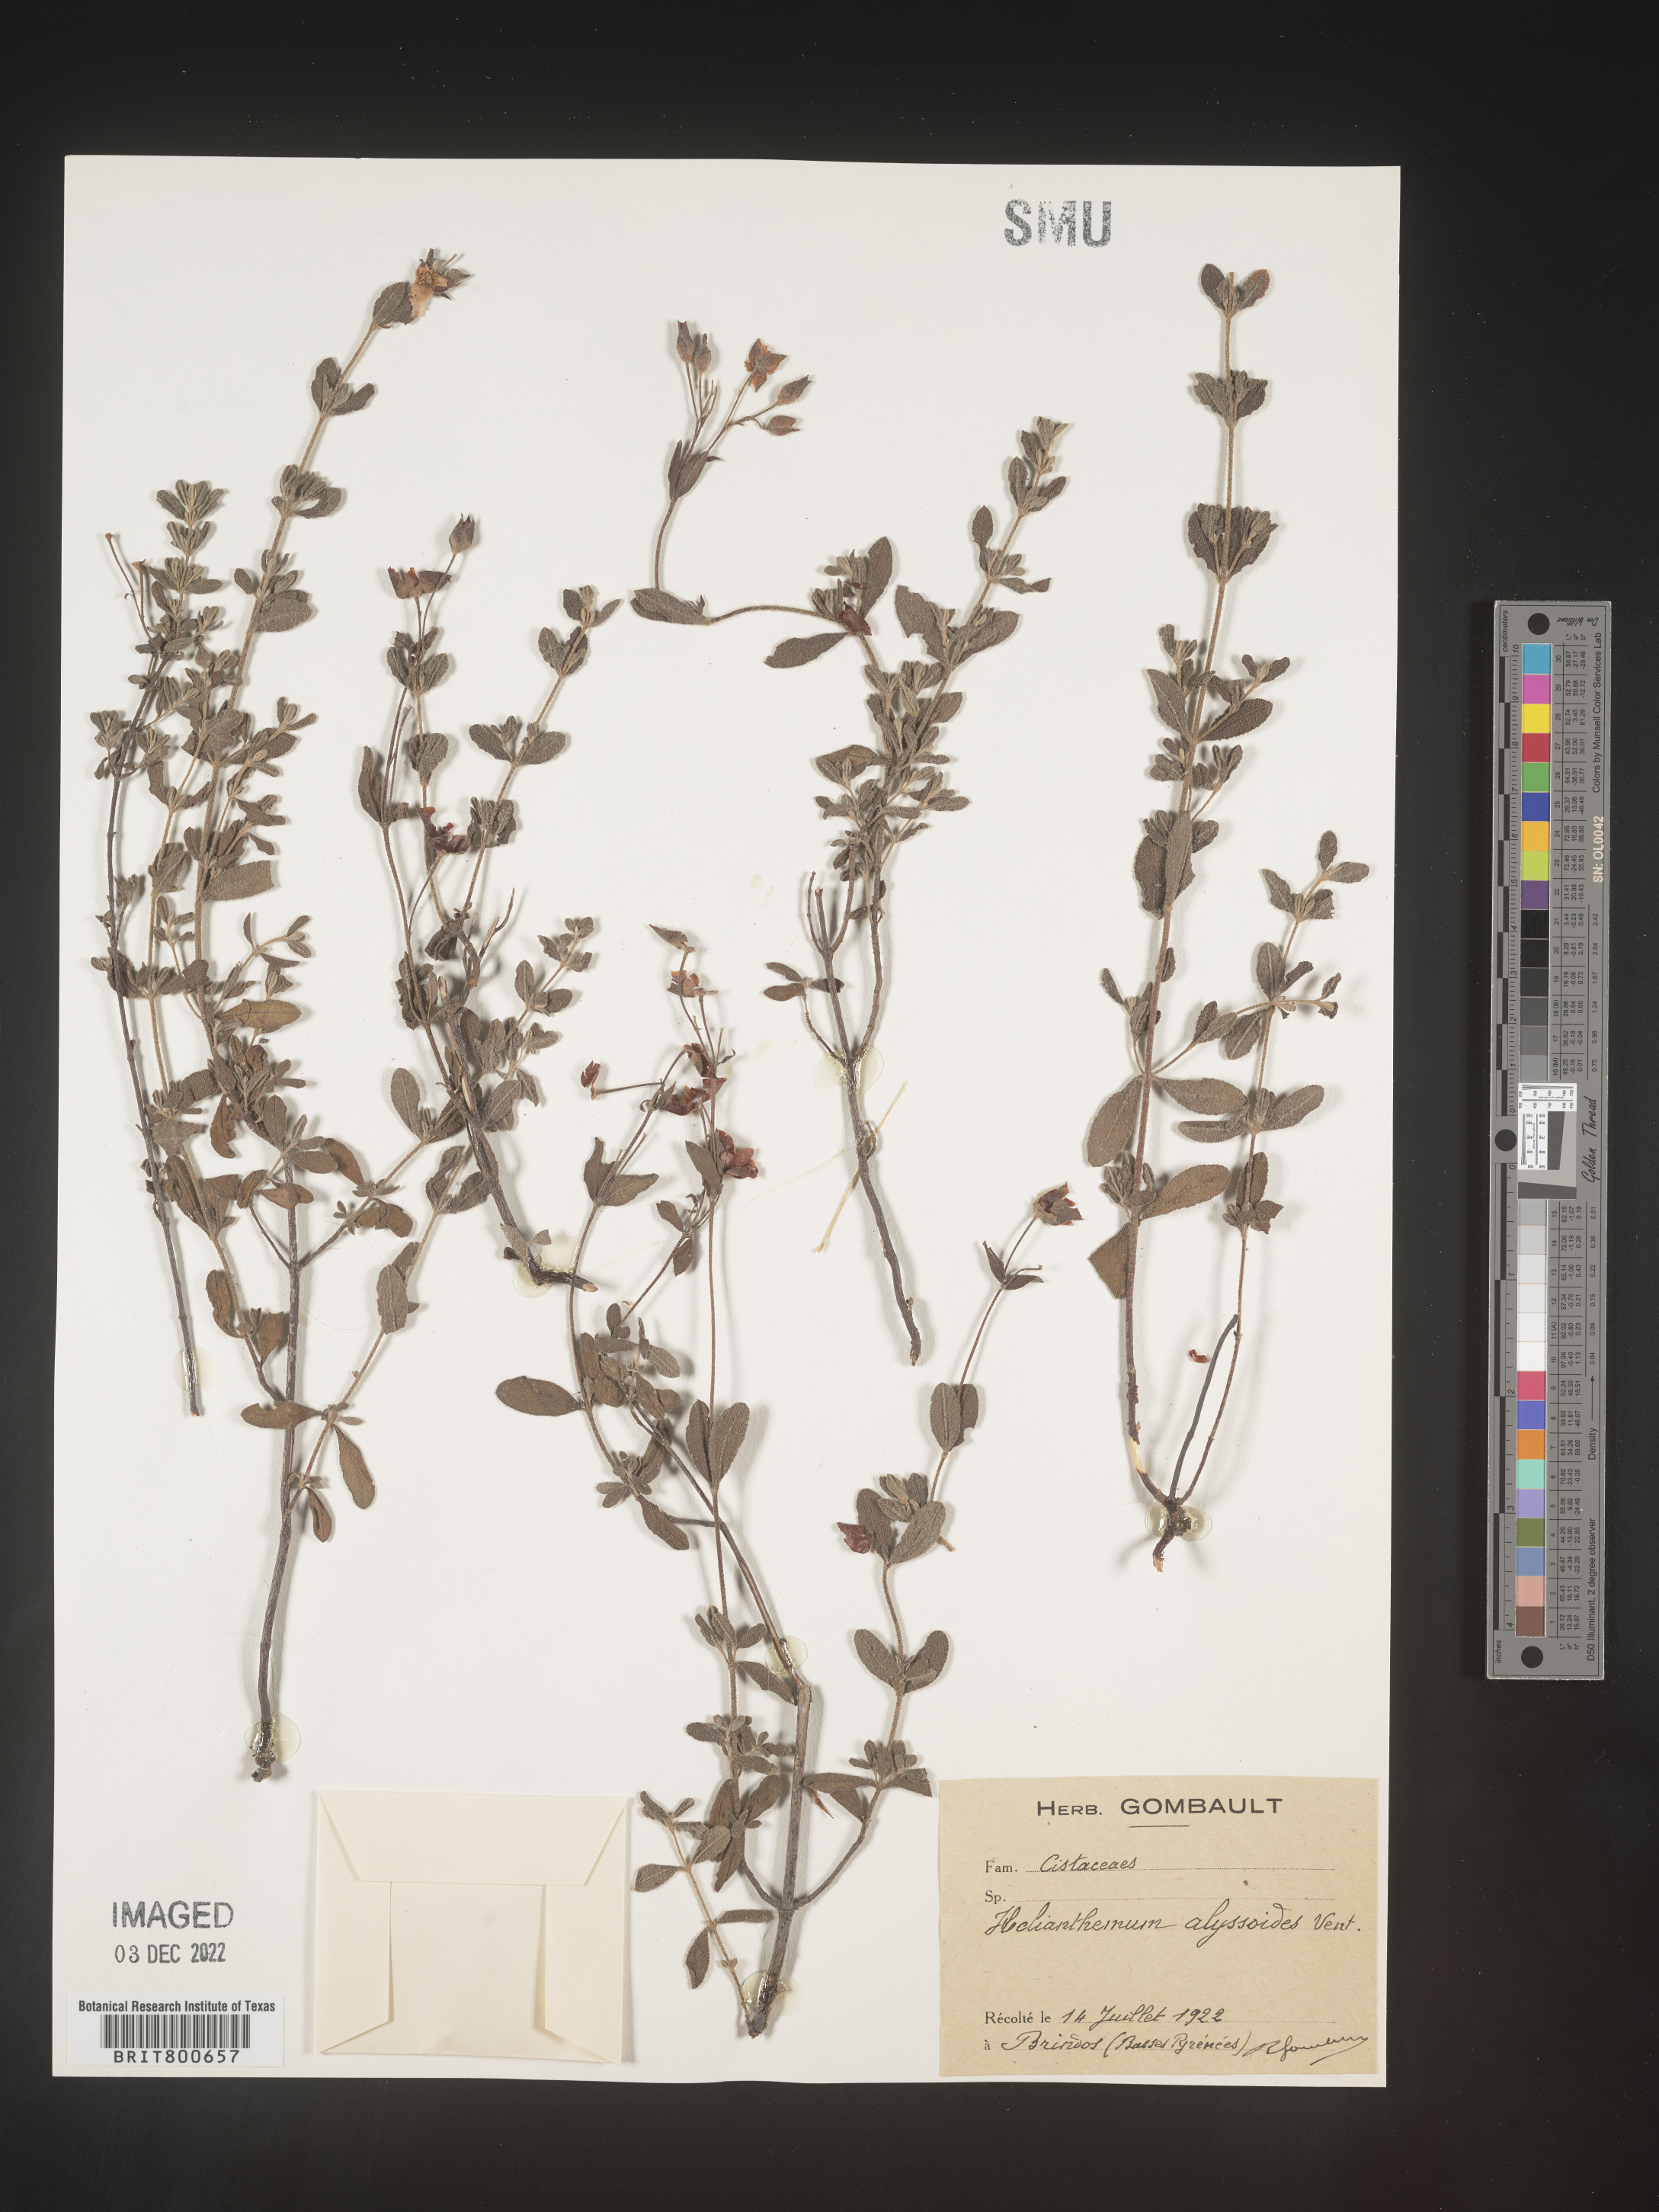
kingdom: Plantae
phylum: Tracheophyta
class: Magnoliopsida
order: Malvales
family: Cistaceae
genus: Helianthemum
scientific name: Helianthemum
